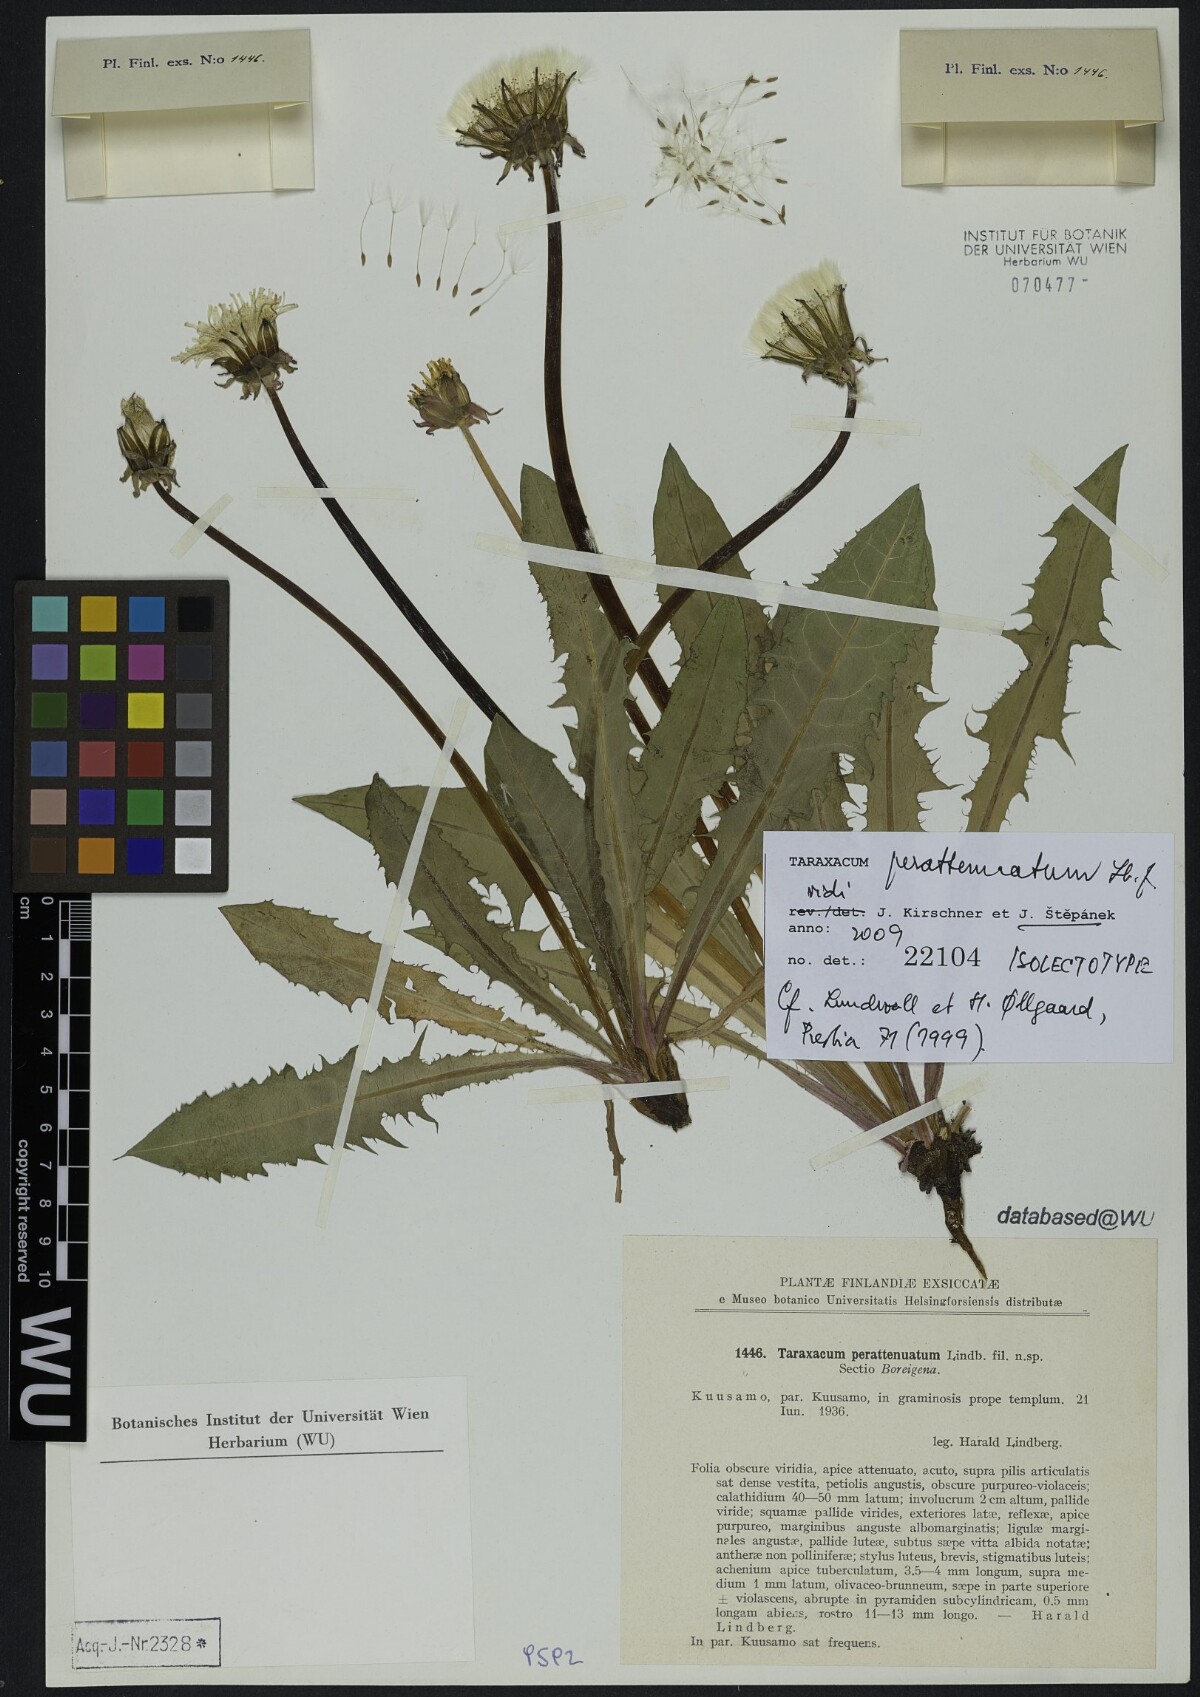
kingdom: Plantae
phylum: Tracheophyta
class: Magnoliopsida
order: Asterales
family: Asteraceae
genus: Taraxacum
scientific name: Taraxacum perattenuatum
